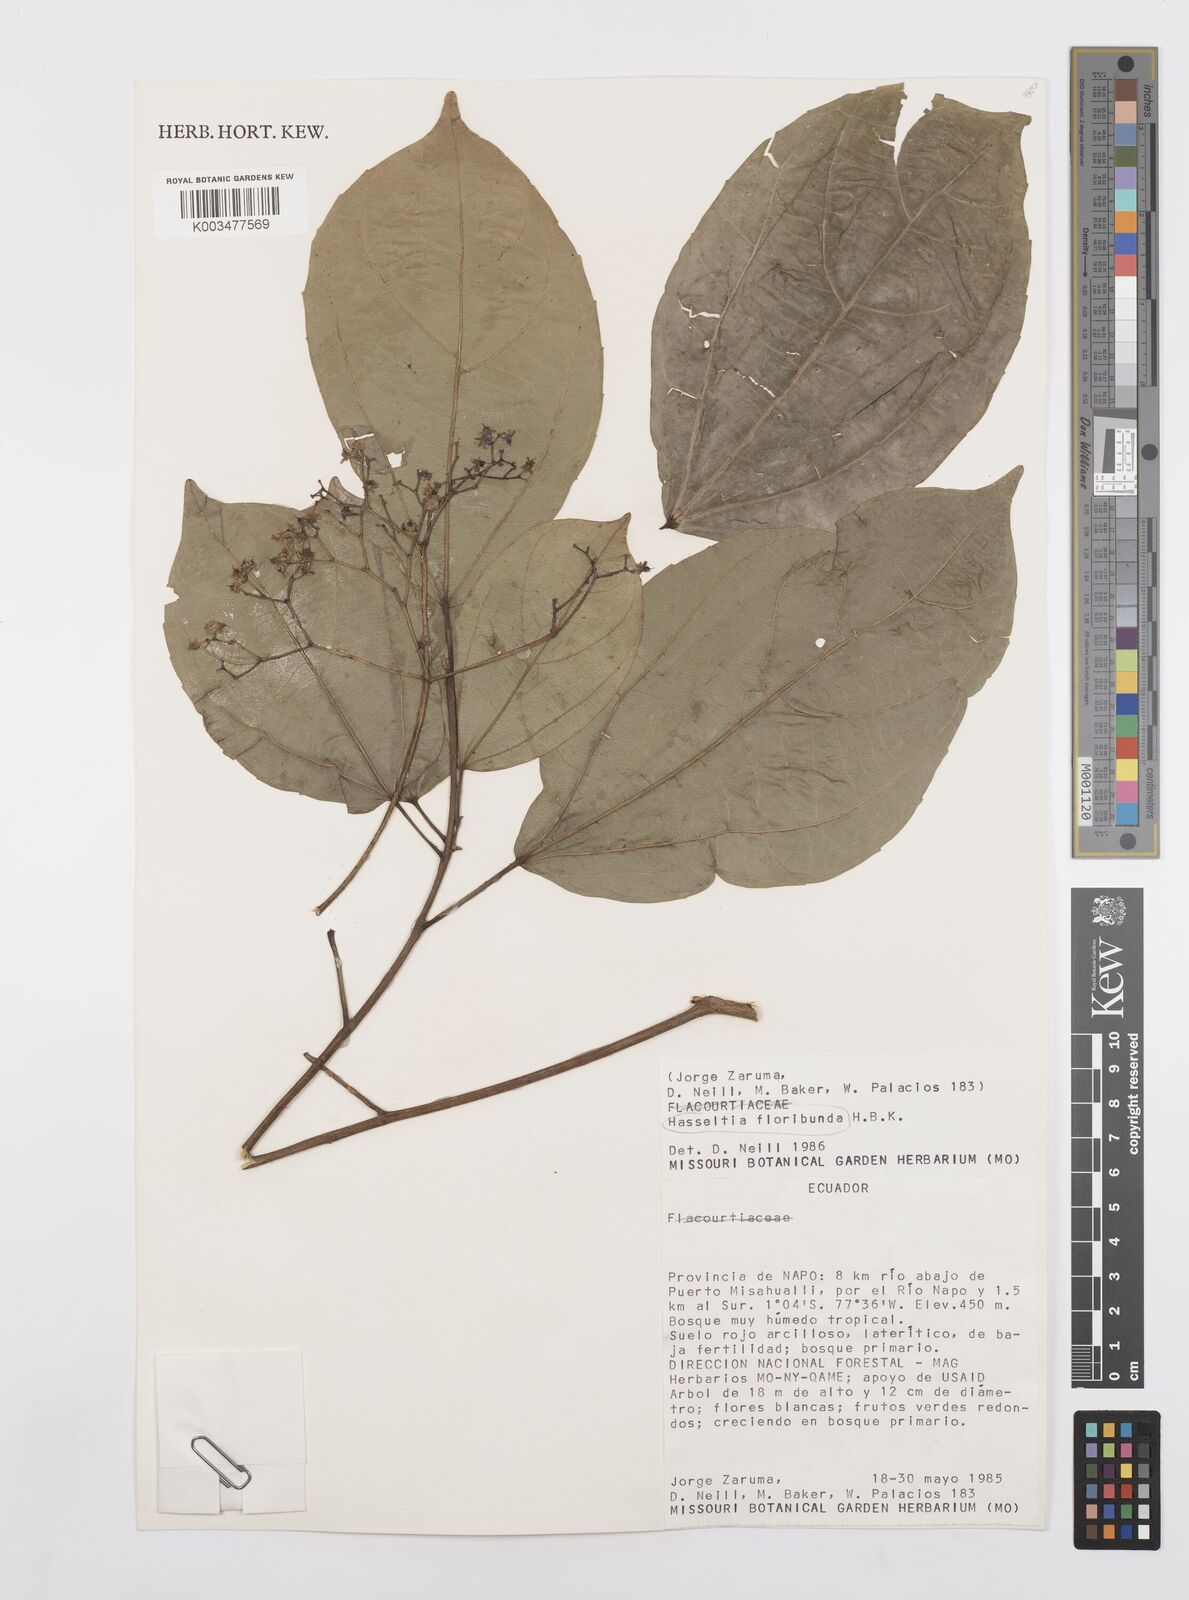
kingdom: Plantae
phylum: Tracheophyta
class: Magnoliopsida
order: Malpighiales
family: Salicaceae
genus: Hasseltia
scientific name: Hasseltia floribunda
